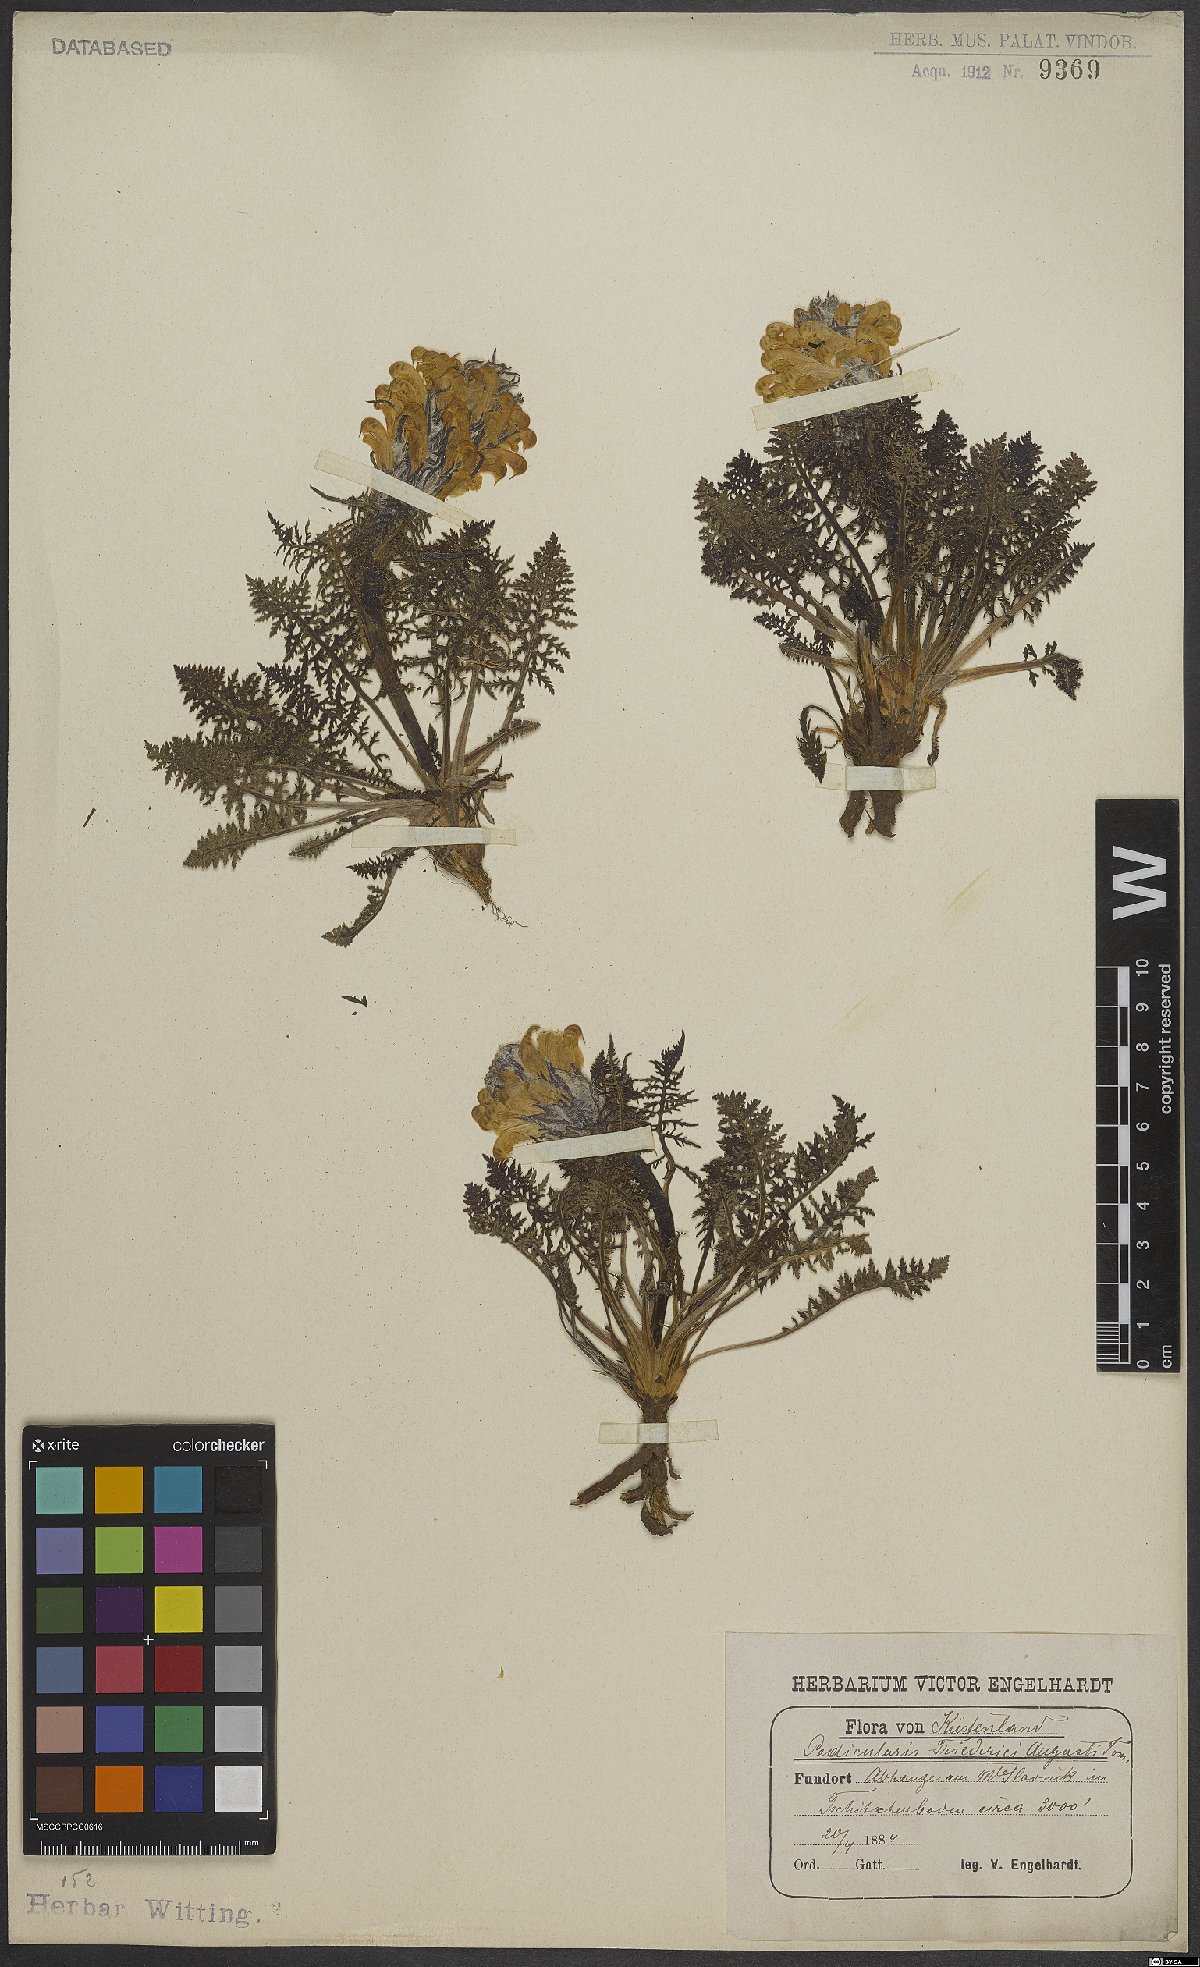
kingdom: Plantae
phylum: Tracheophyta
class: Magnoliopsida
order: Lamiales
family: Orobanchaceae
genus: Pedicularis
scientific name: Pedicularis friderici-augusti
